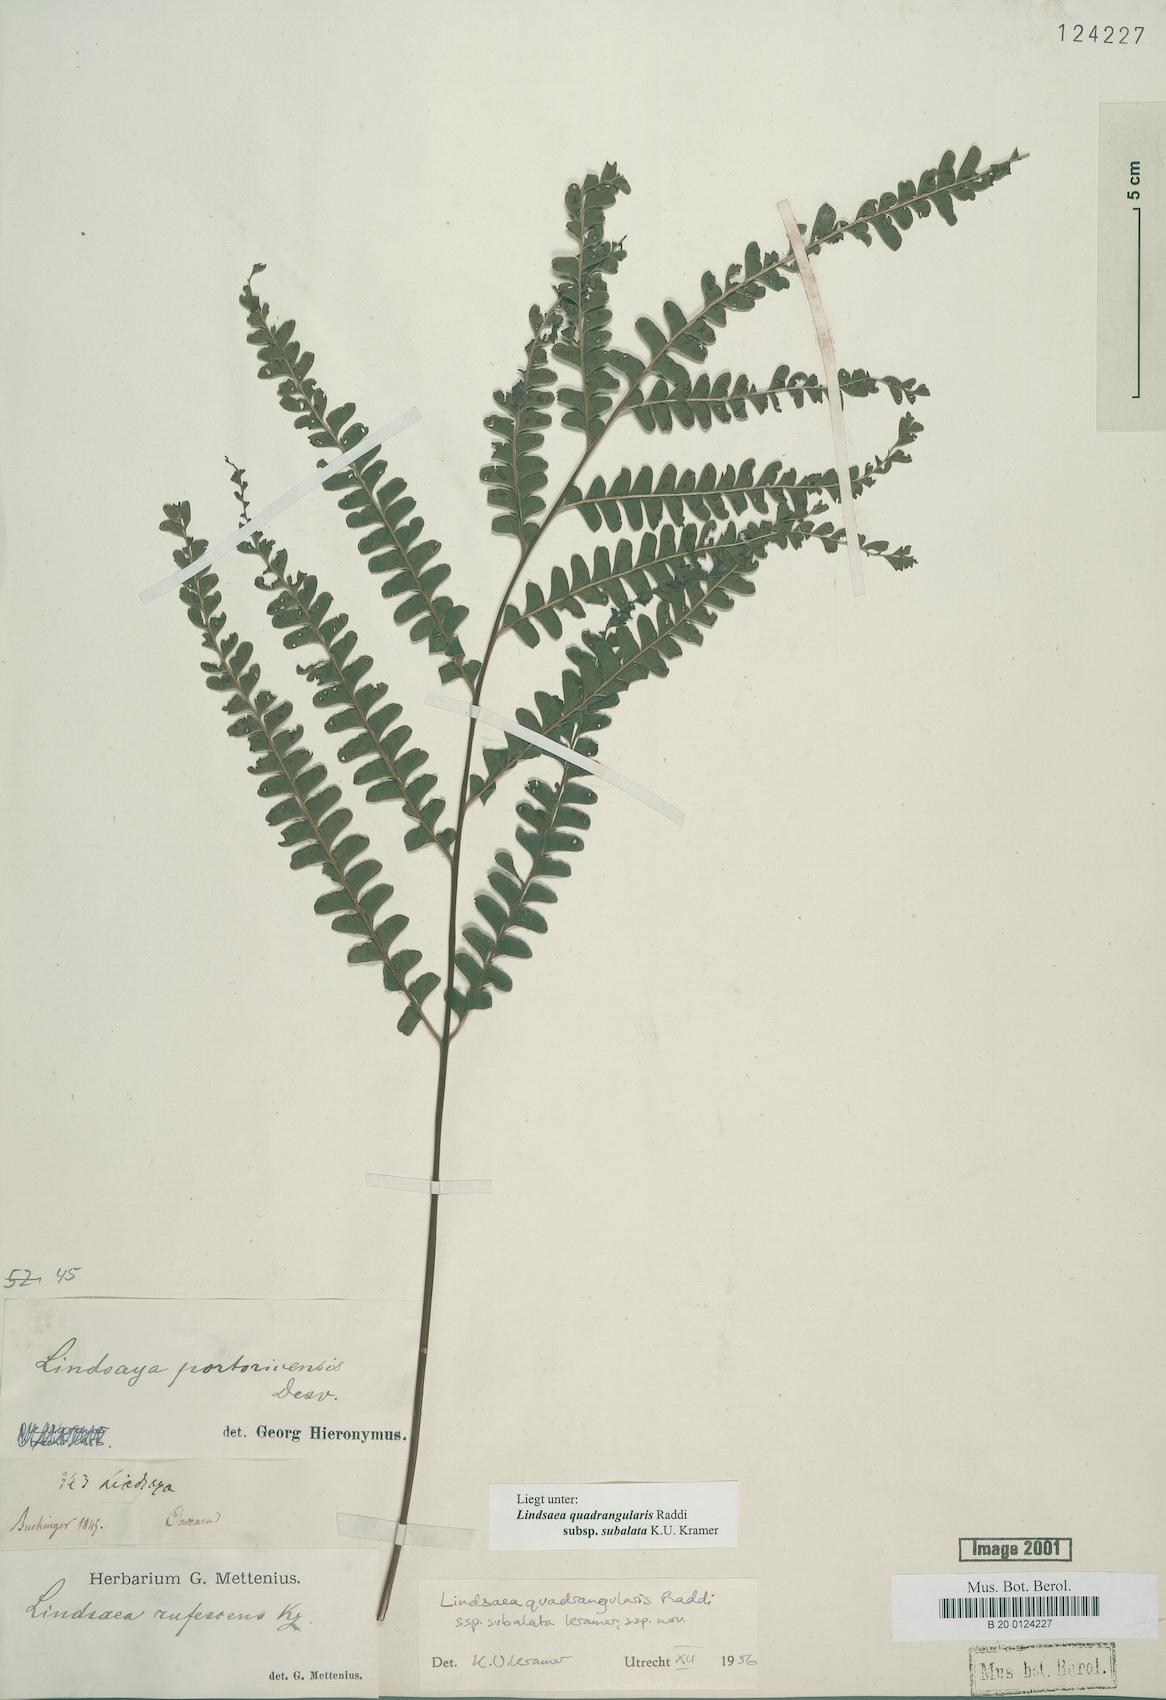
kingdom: Plantae
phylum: Tracheophyta
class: Polypodiopsida
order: Polypodiales
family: Lindsaeaceae
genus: Lindsaea
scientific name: Lindsaea subalata
